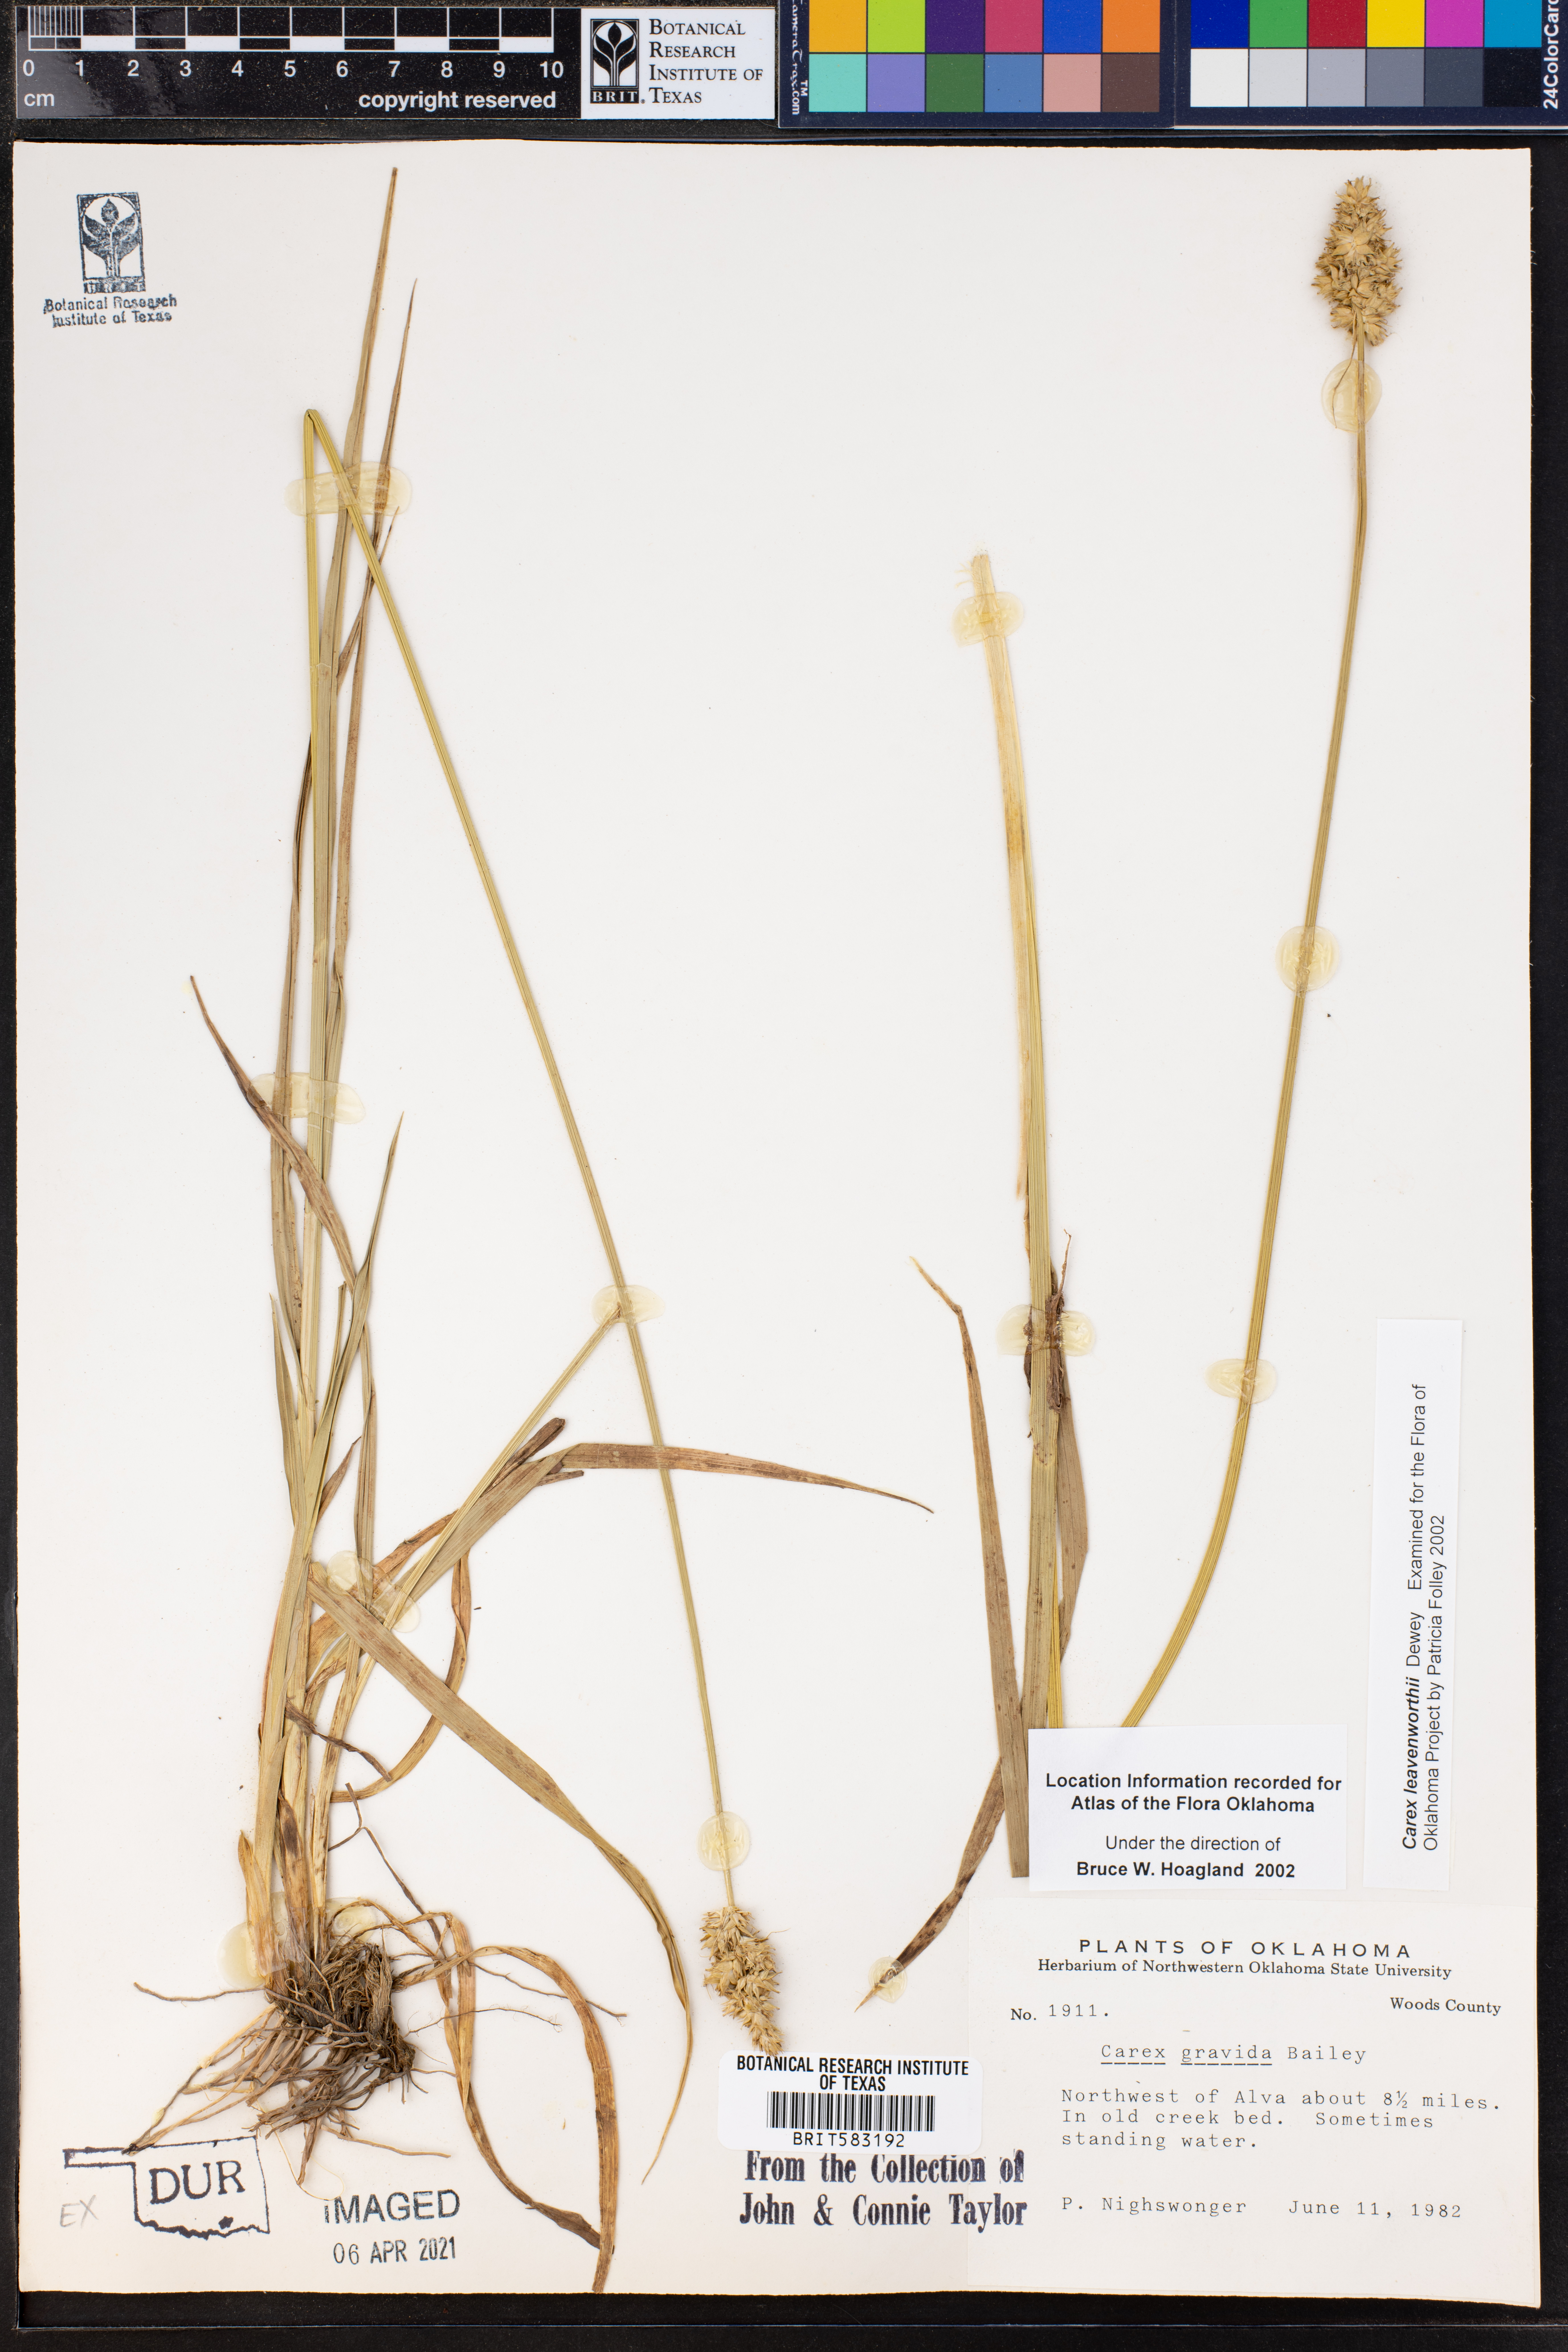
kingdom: Plantae
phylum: Tracheophyta
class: Liliopsida
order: Poales
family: Cyperaceae
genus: Carex
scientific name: Carex leavenworthii
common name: Leavenworth's bracted sedge
